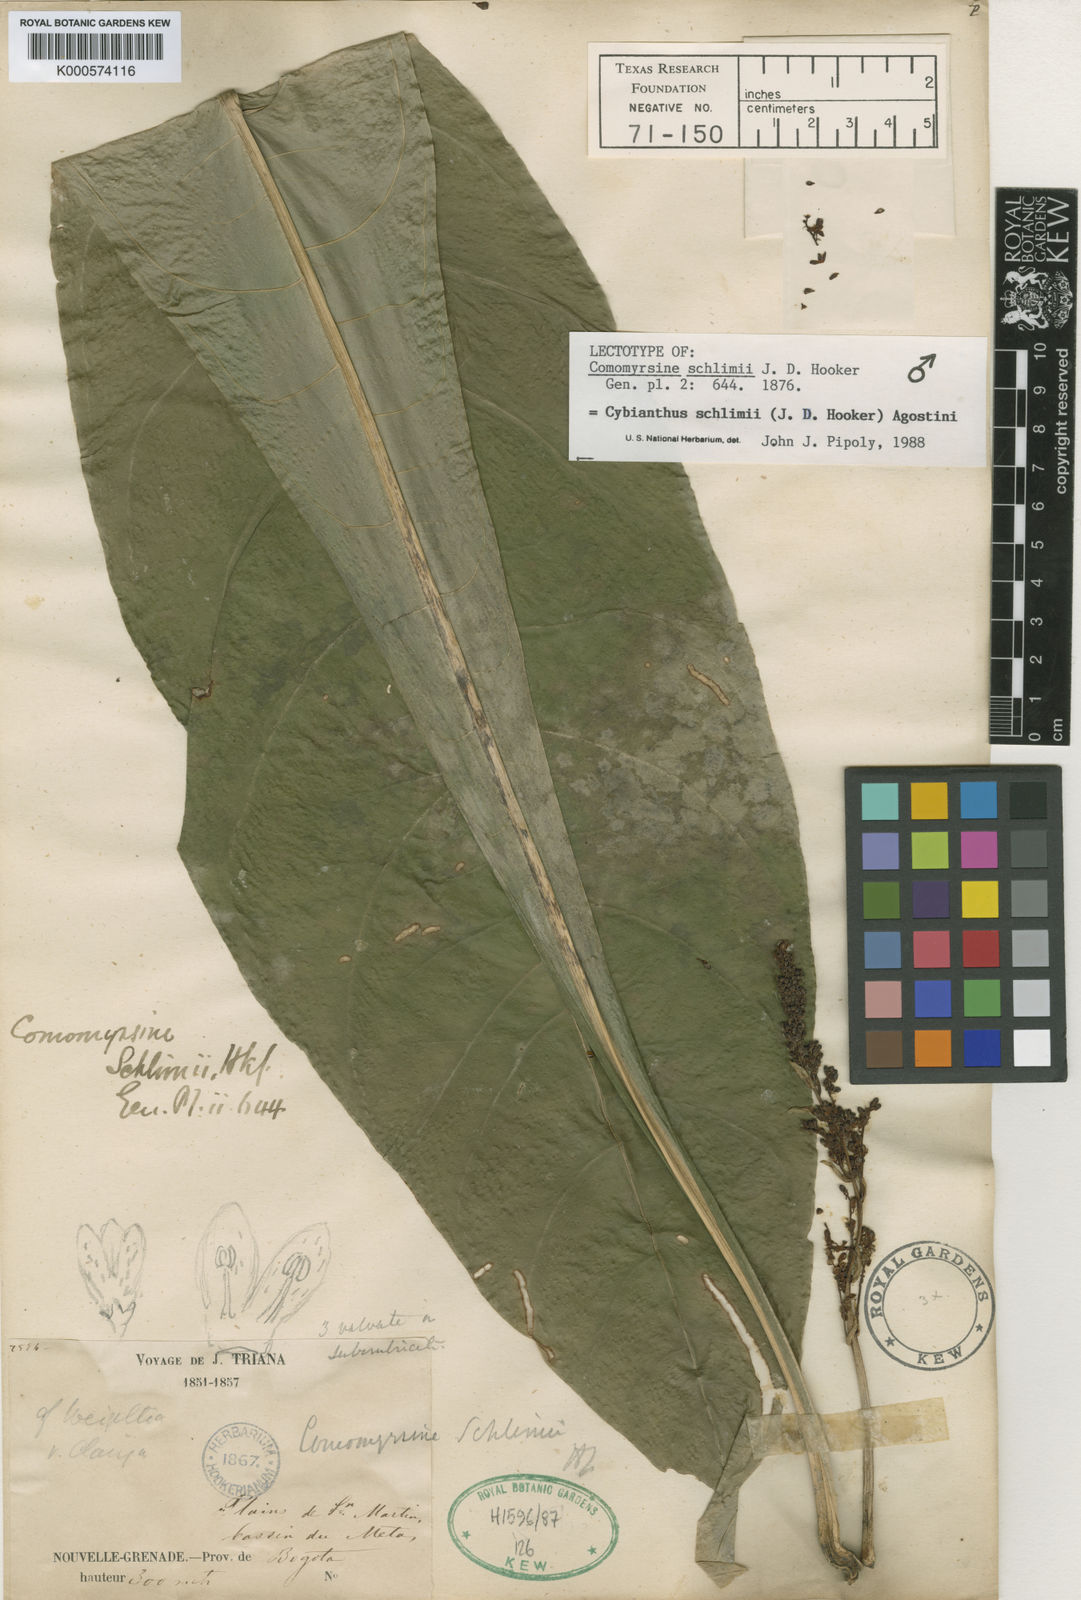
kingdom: Plantae
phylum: Tracheophyta
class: Magnoliopsida
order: Ericales
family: Primulaceae
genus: Cybianthus
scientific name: Cybianthus schlimii
